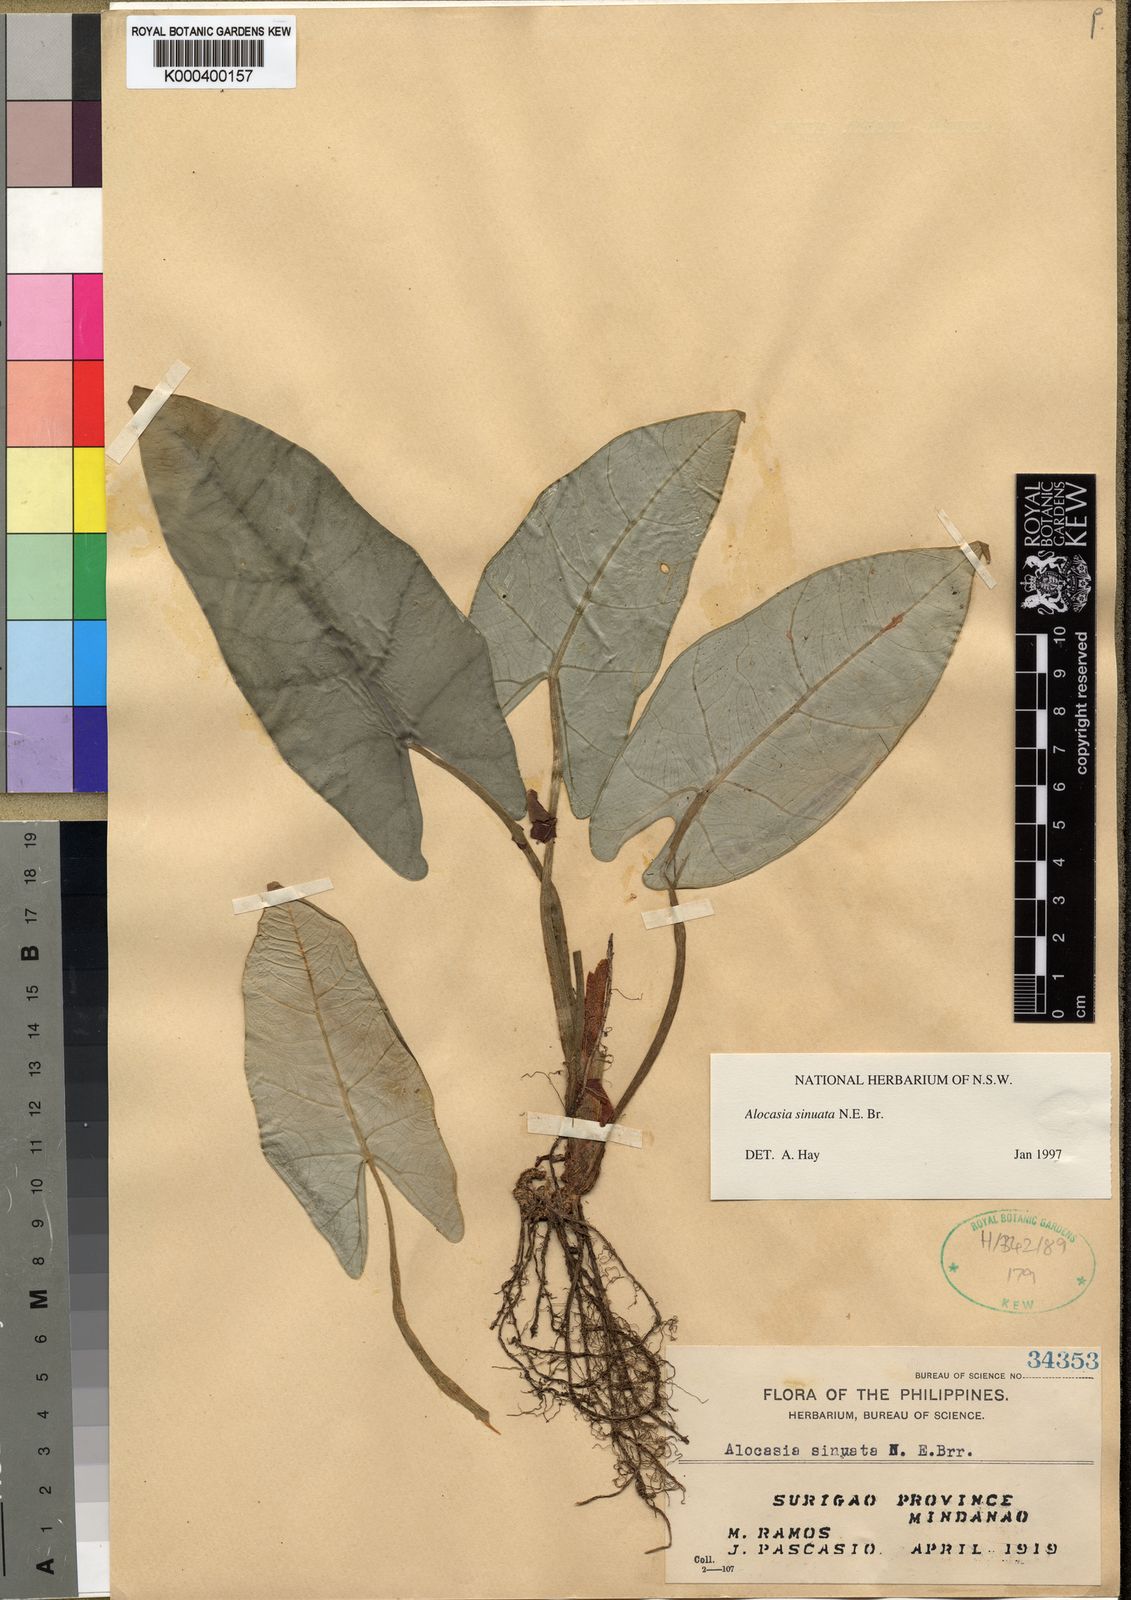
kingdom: Plantae
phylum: Tracheophyta
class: Liliopsida
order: Alismatales
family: Araceae
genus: Alocasia
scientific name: Alocasia sinuata
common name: Alocasia quilted dreams
